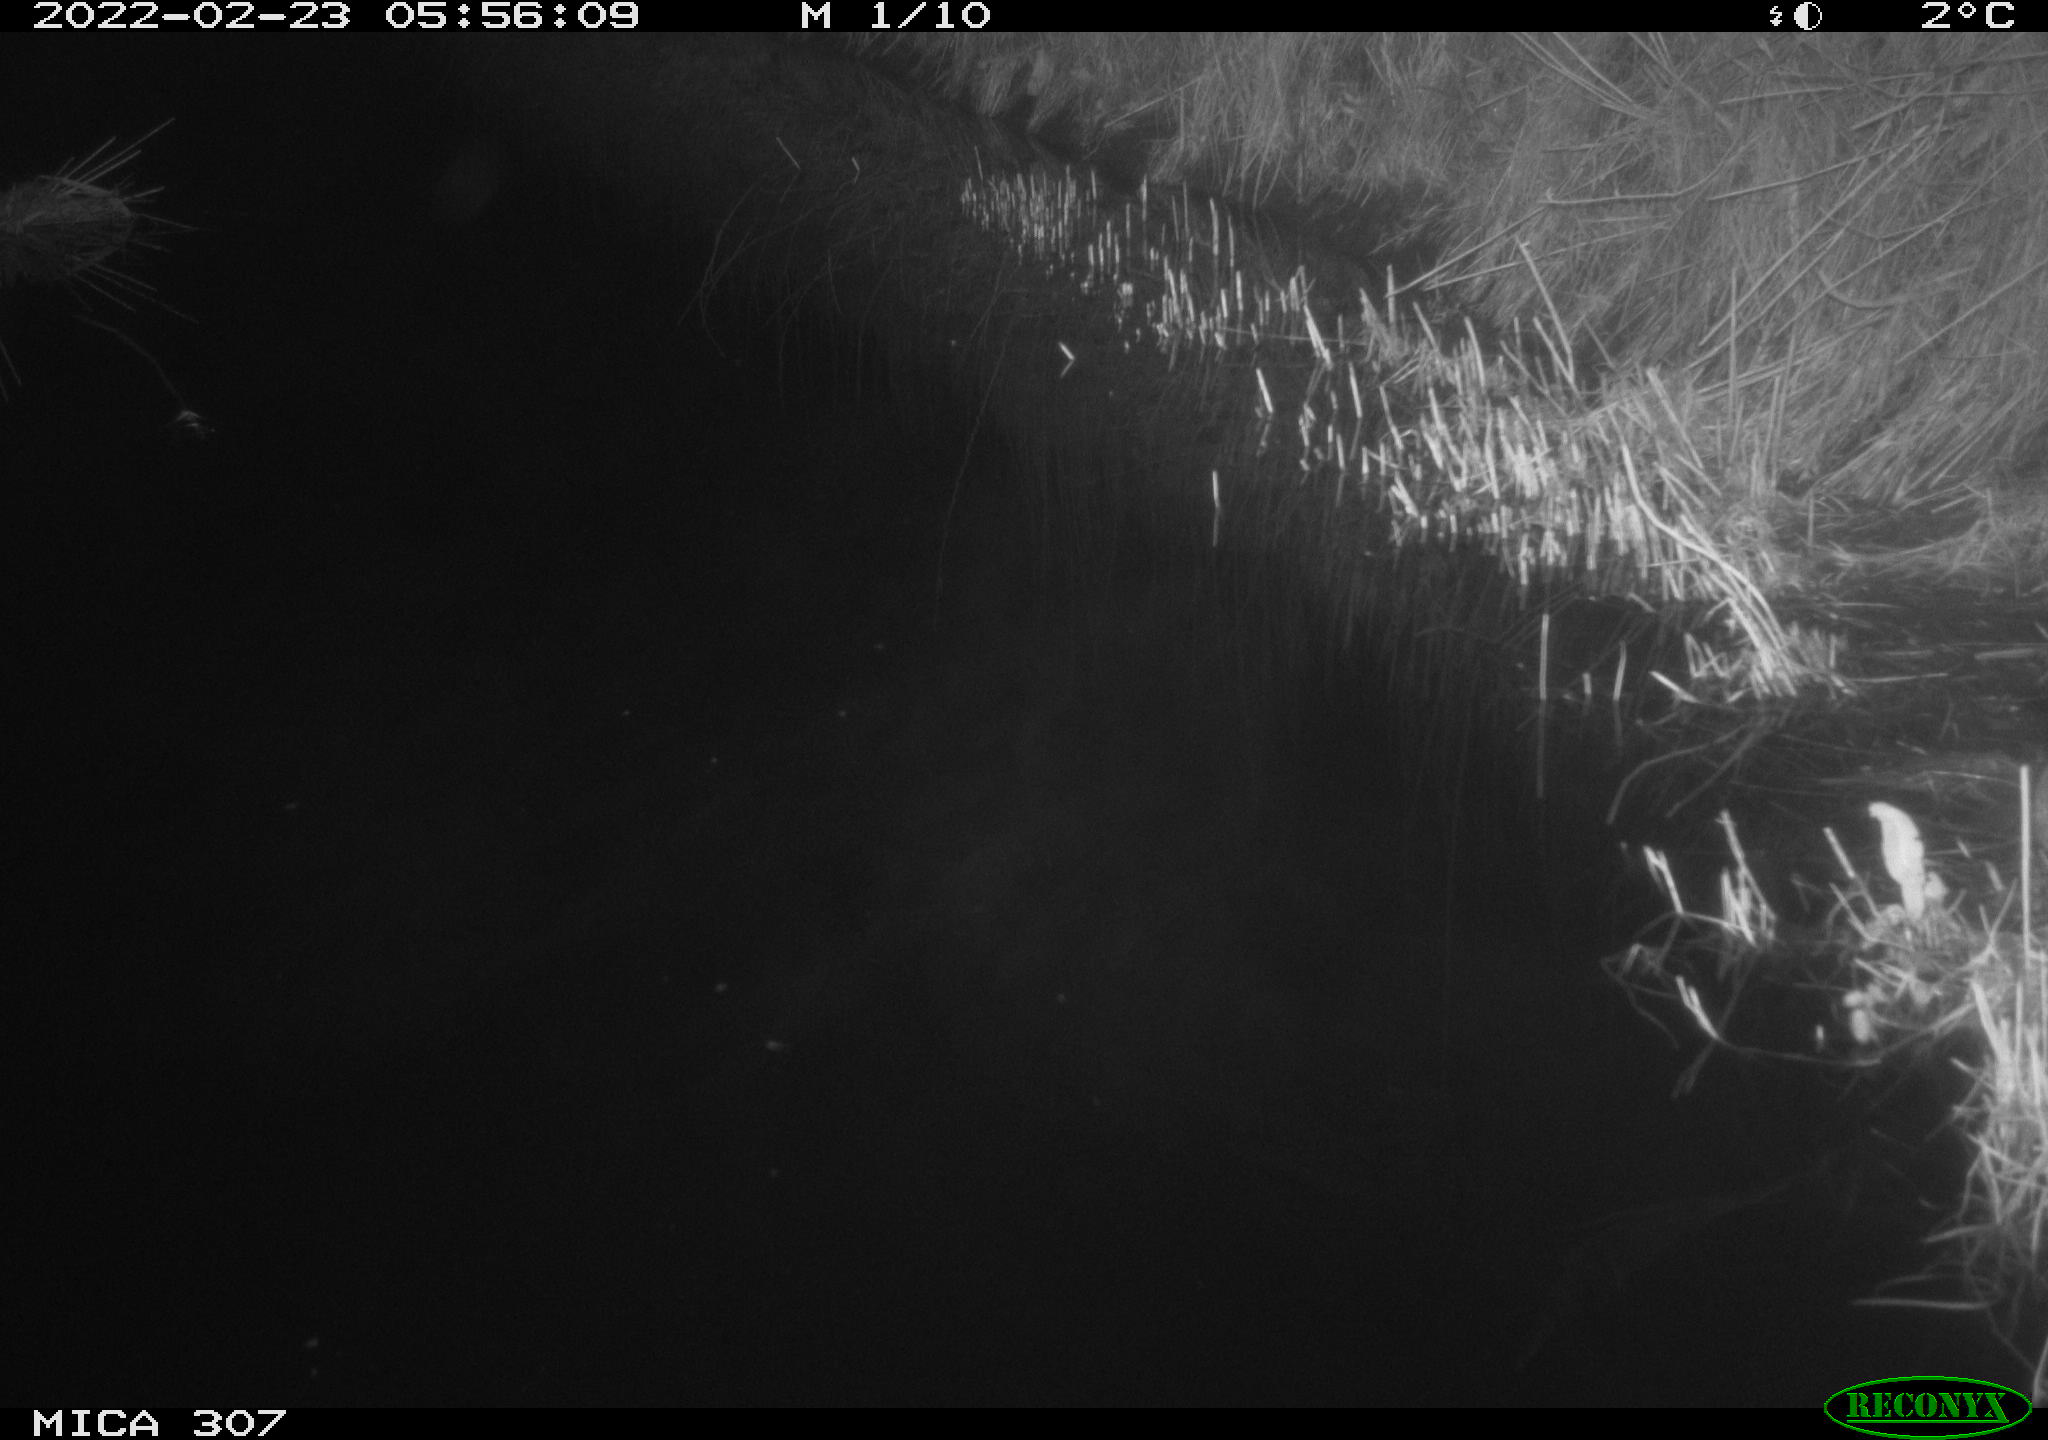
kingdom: Animalia
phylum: Chordata
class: Mammalia
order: Rodentia
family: Muridae
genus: Rattus
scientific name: Rattus norvegicus
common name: Brown rat
